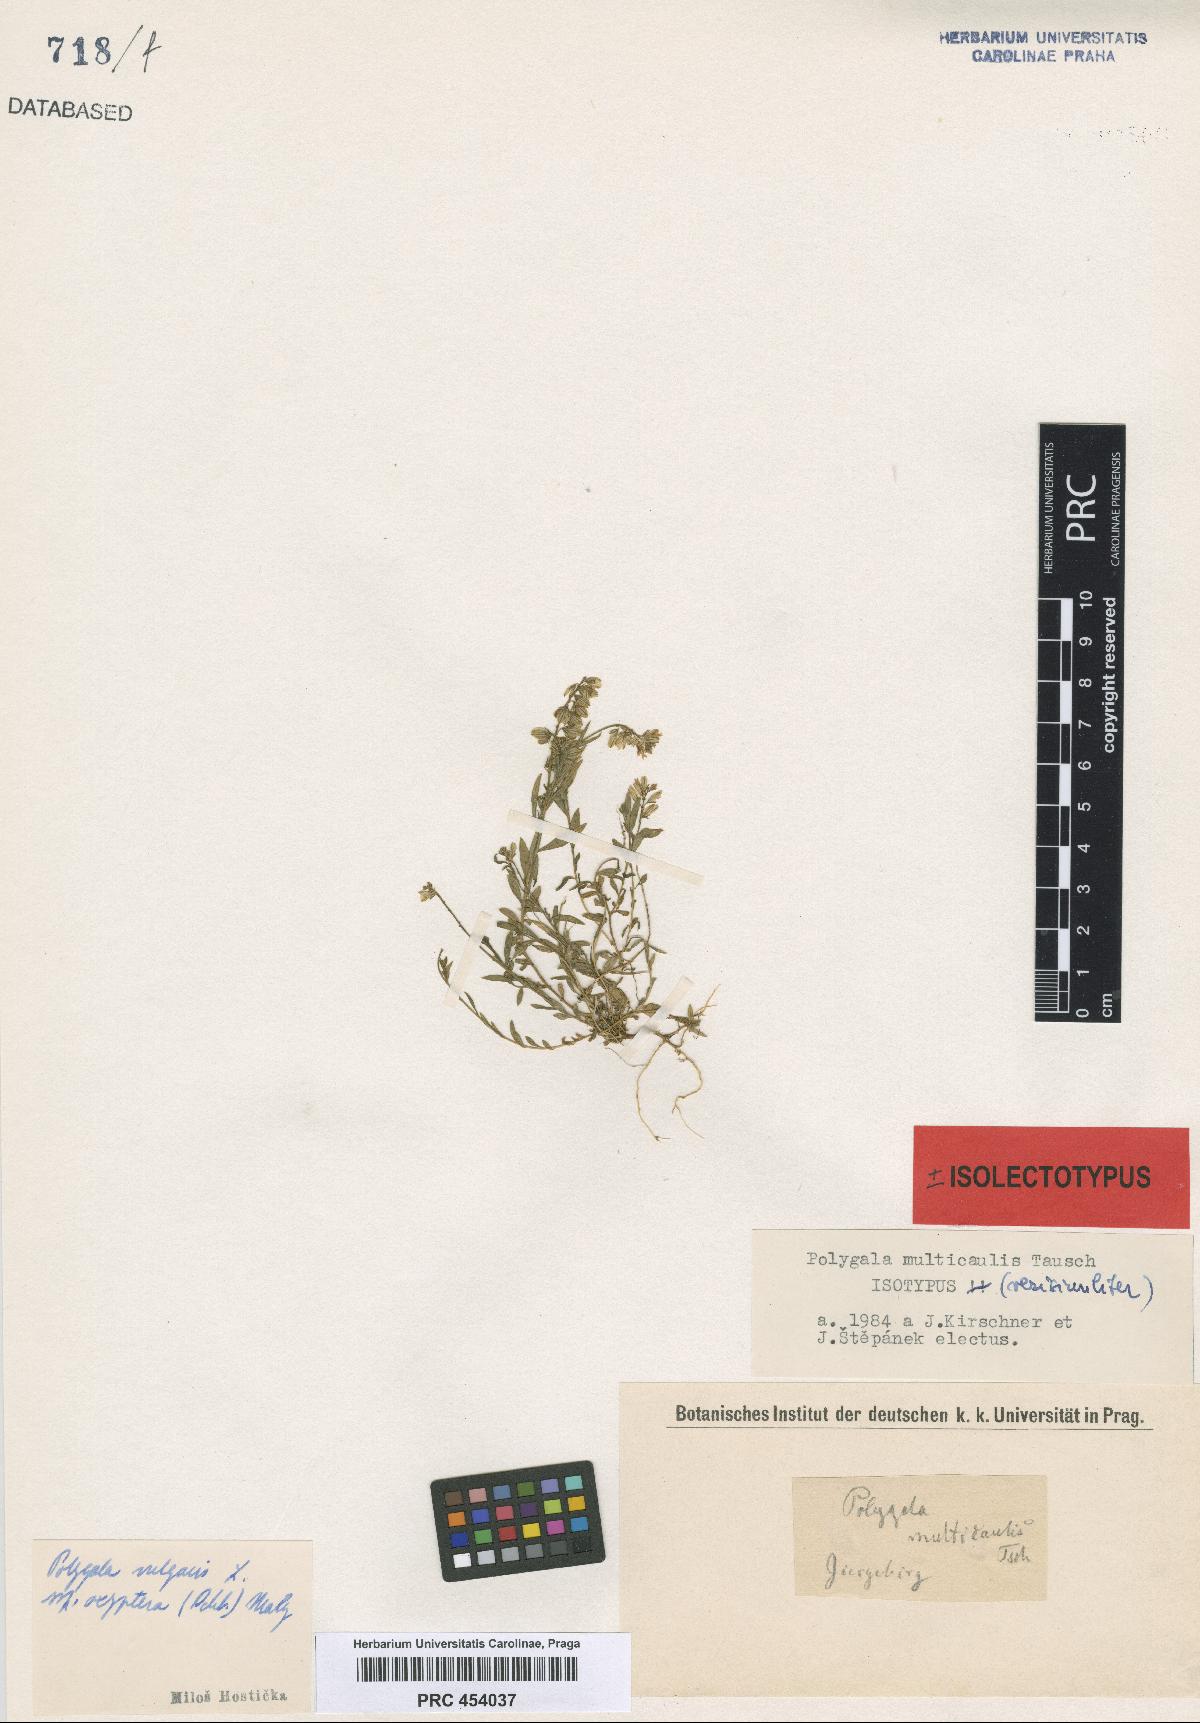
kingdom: Plantae
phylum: Tracheophyta
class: Magnoliopsida
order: Fabales
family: Polygalaceae
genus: Polygala
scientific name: Polygala vulgaris
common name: Common milkwort
